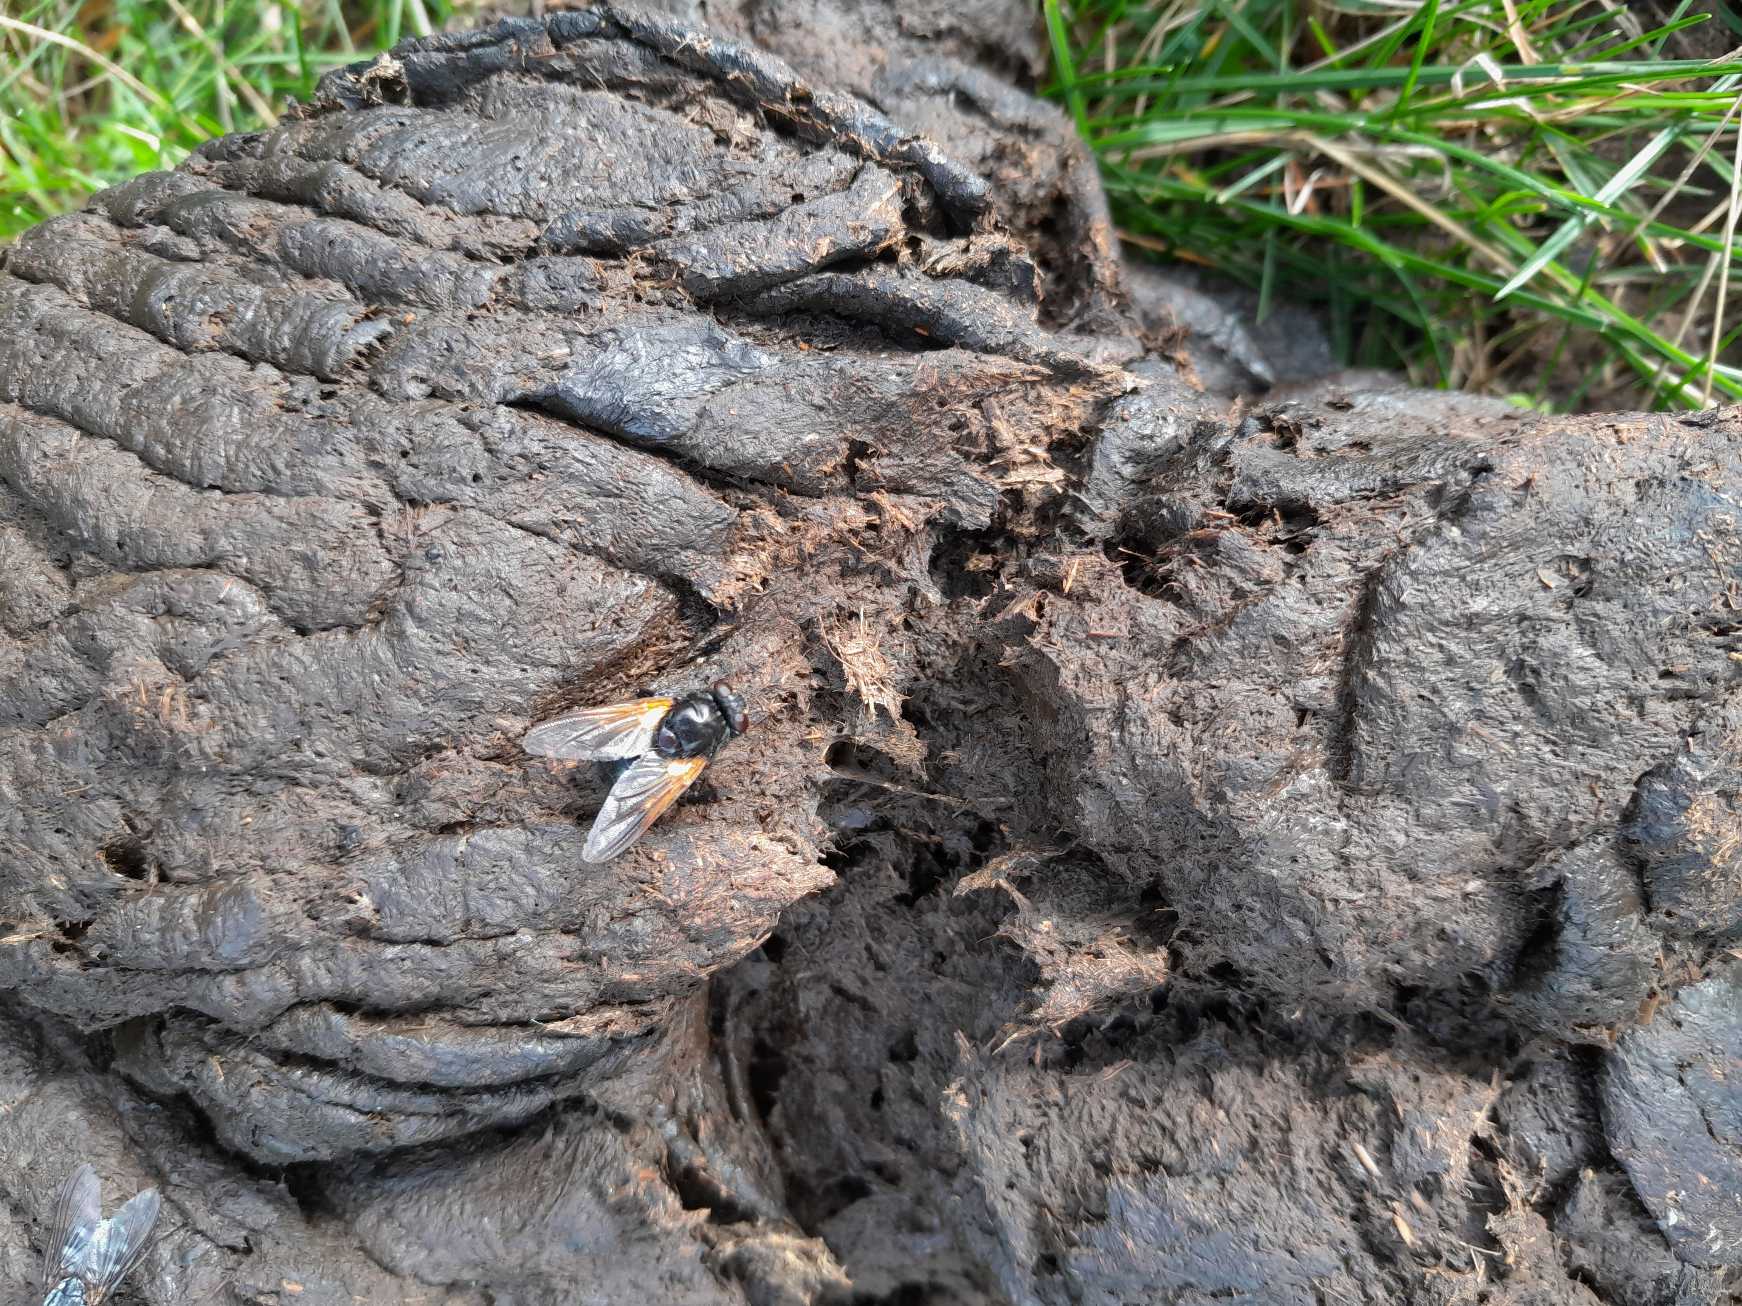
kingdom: Animalia
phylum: Arthropoda
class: Insecta
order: Diptera
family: Muscidae
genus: Mesembrina
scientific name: Mesembrina meridiana
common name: Gulvinget flue
